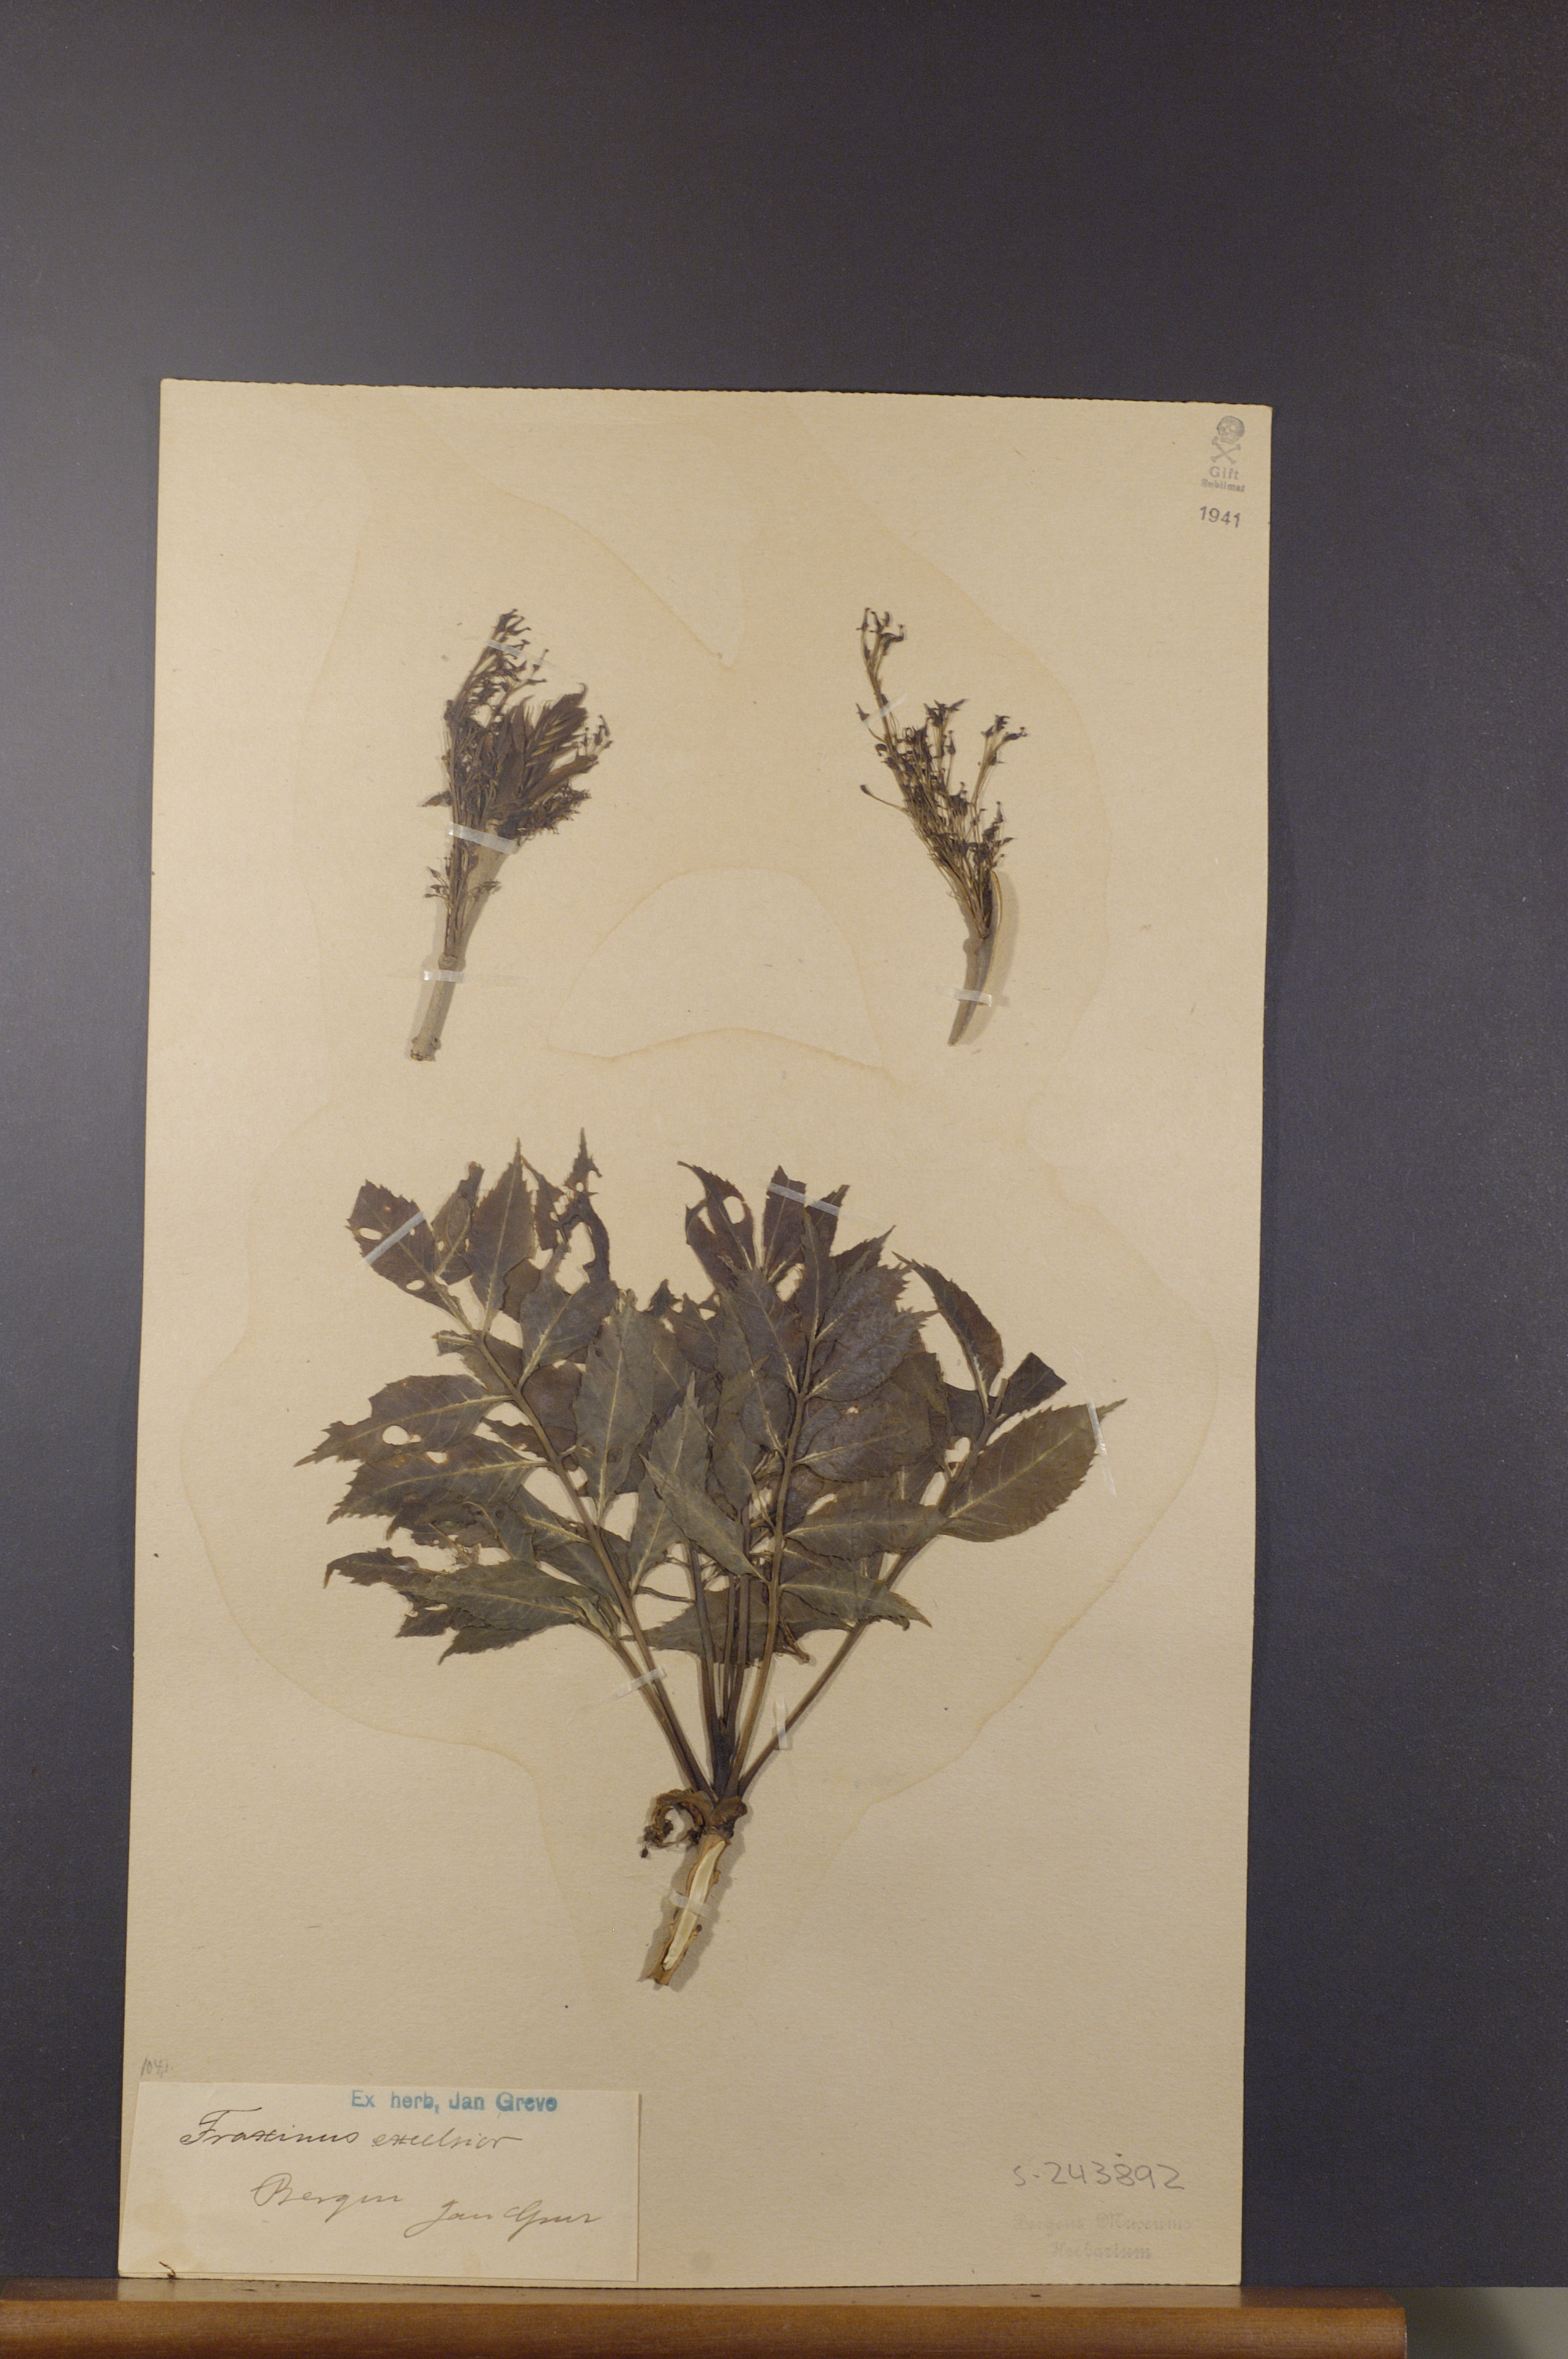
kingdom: Plantae
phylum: Tracheophyta
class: Magnoliopsida
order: Lamiales
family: Oleaceae
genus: Fraxinus
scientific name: Fraxinus excelsior
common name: European ash
